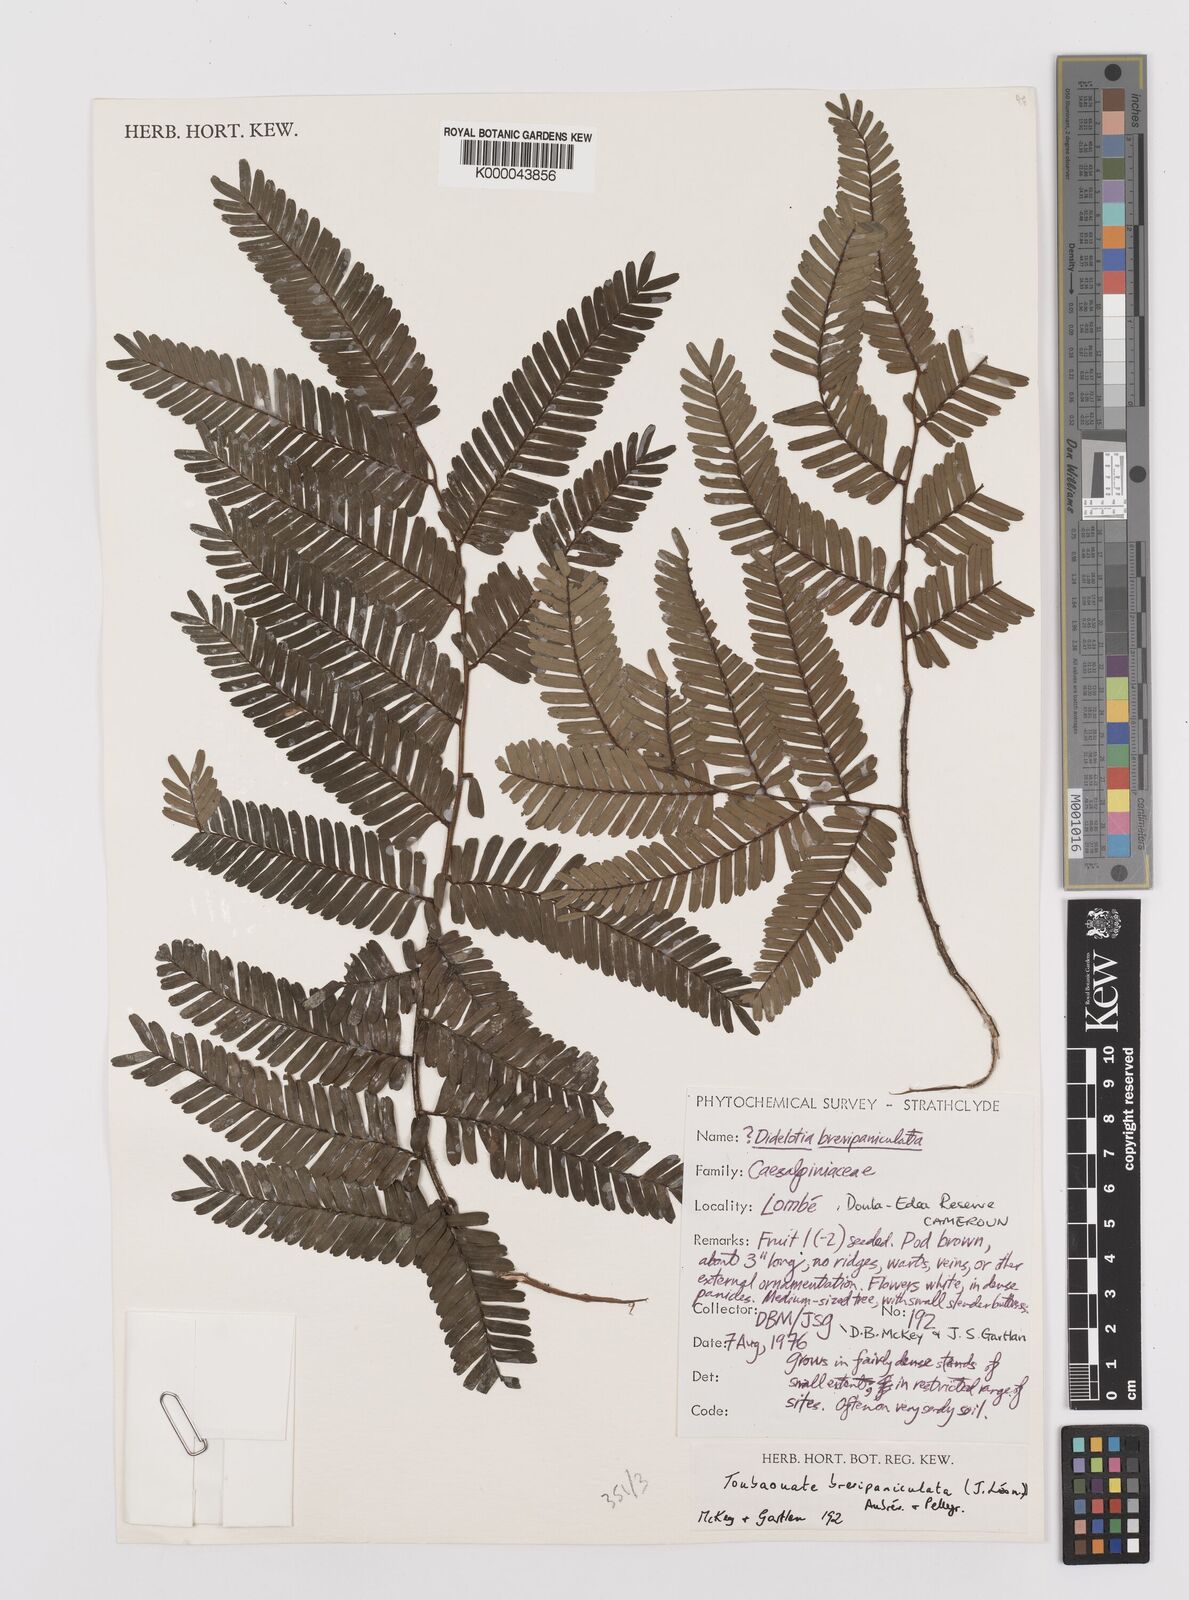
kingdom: Plantae
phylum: Tracheophyta
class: Magnoliopsida
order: Fabales
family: Fabaceae
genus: Didelotia
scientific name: Didelotia
